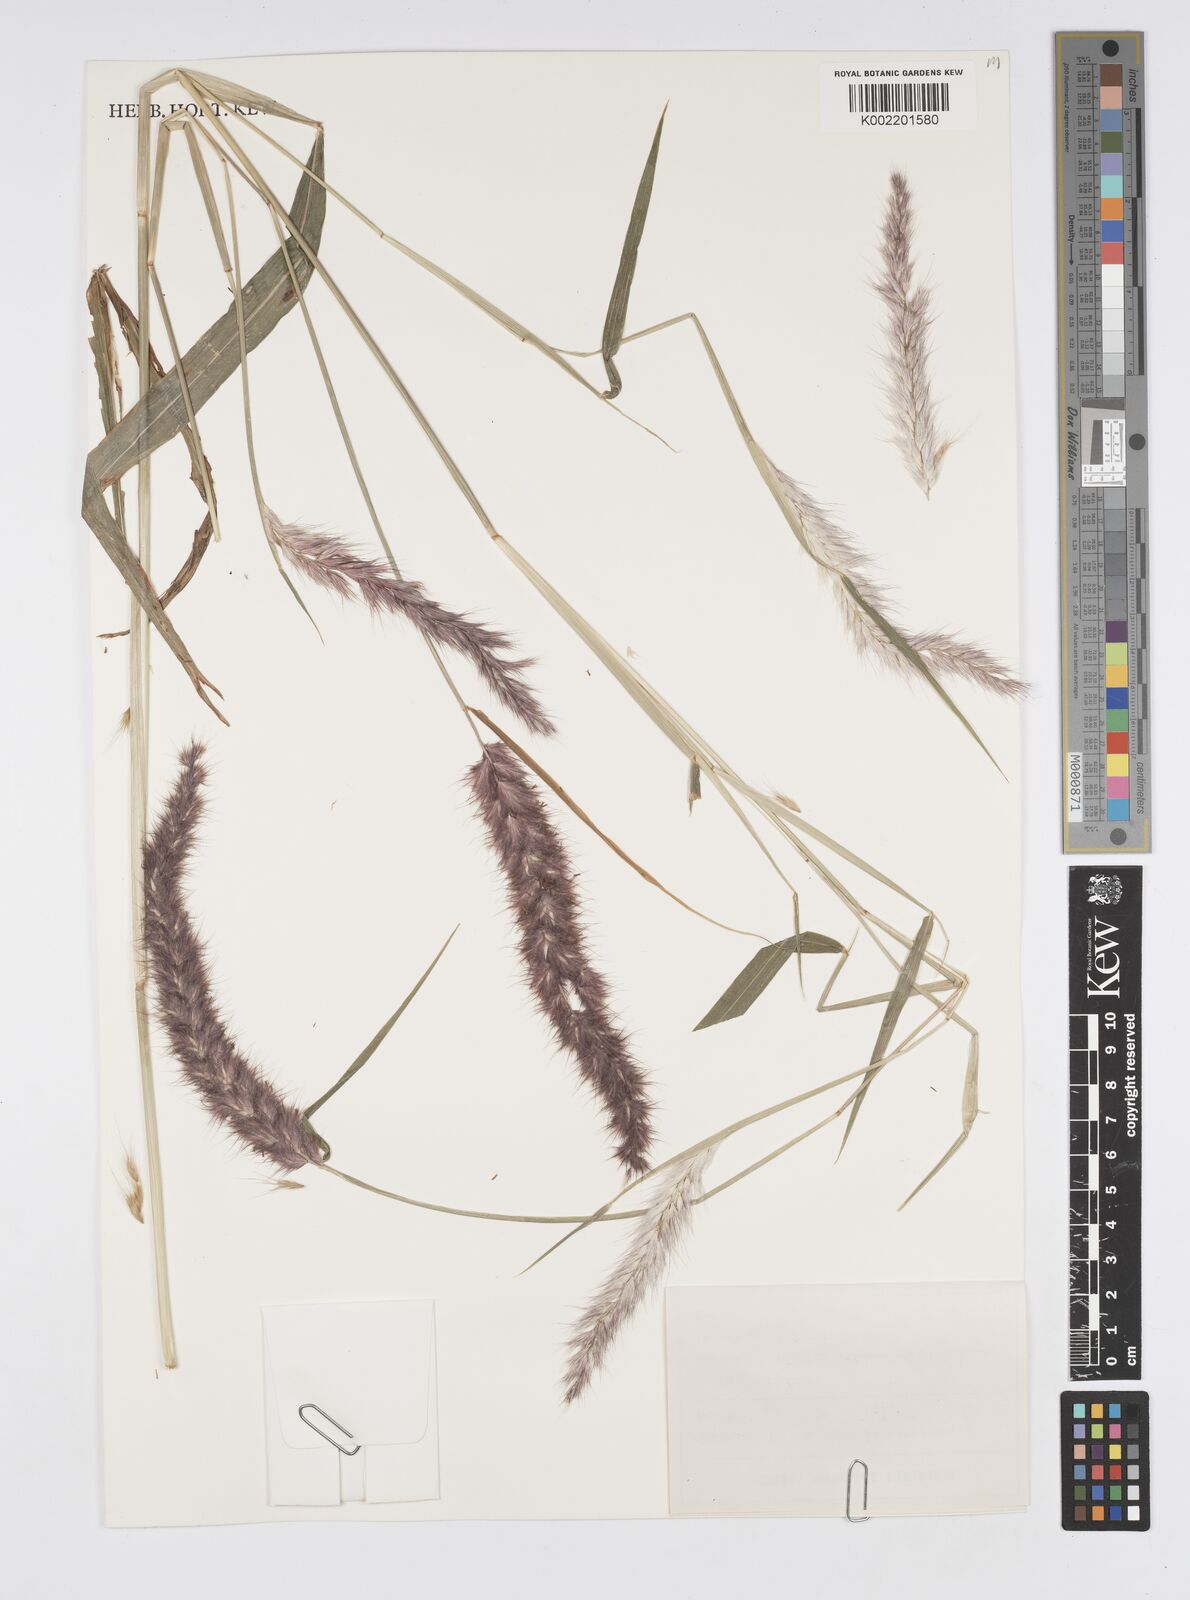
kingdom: Plantae
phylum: Tracheophyta
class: Liliopsida
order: Poales
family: Poaceae
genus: Cenchrus
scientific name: Cenchrus pedicellatus
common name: Hairy fountain grass
